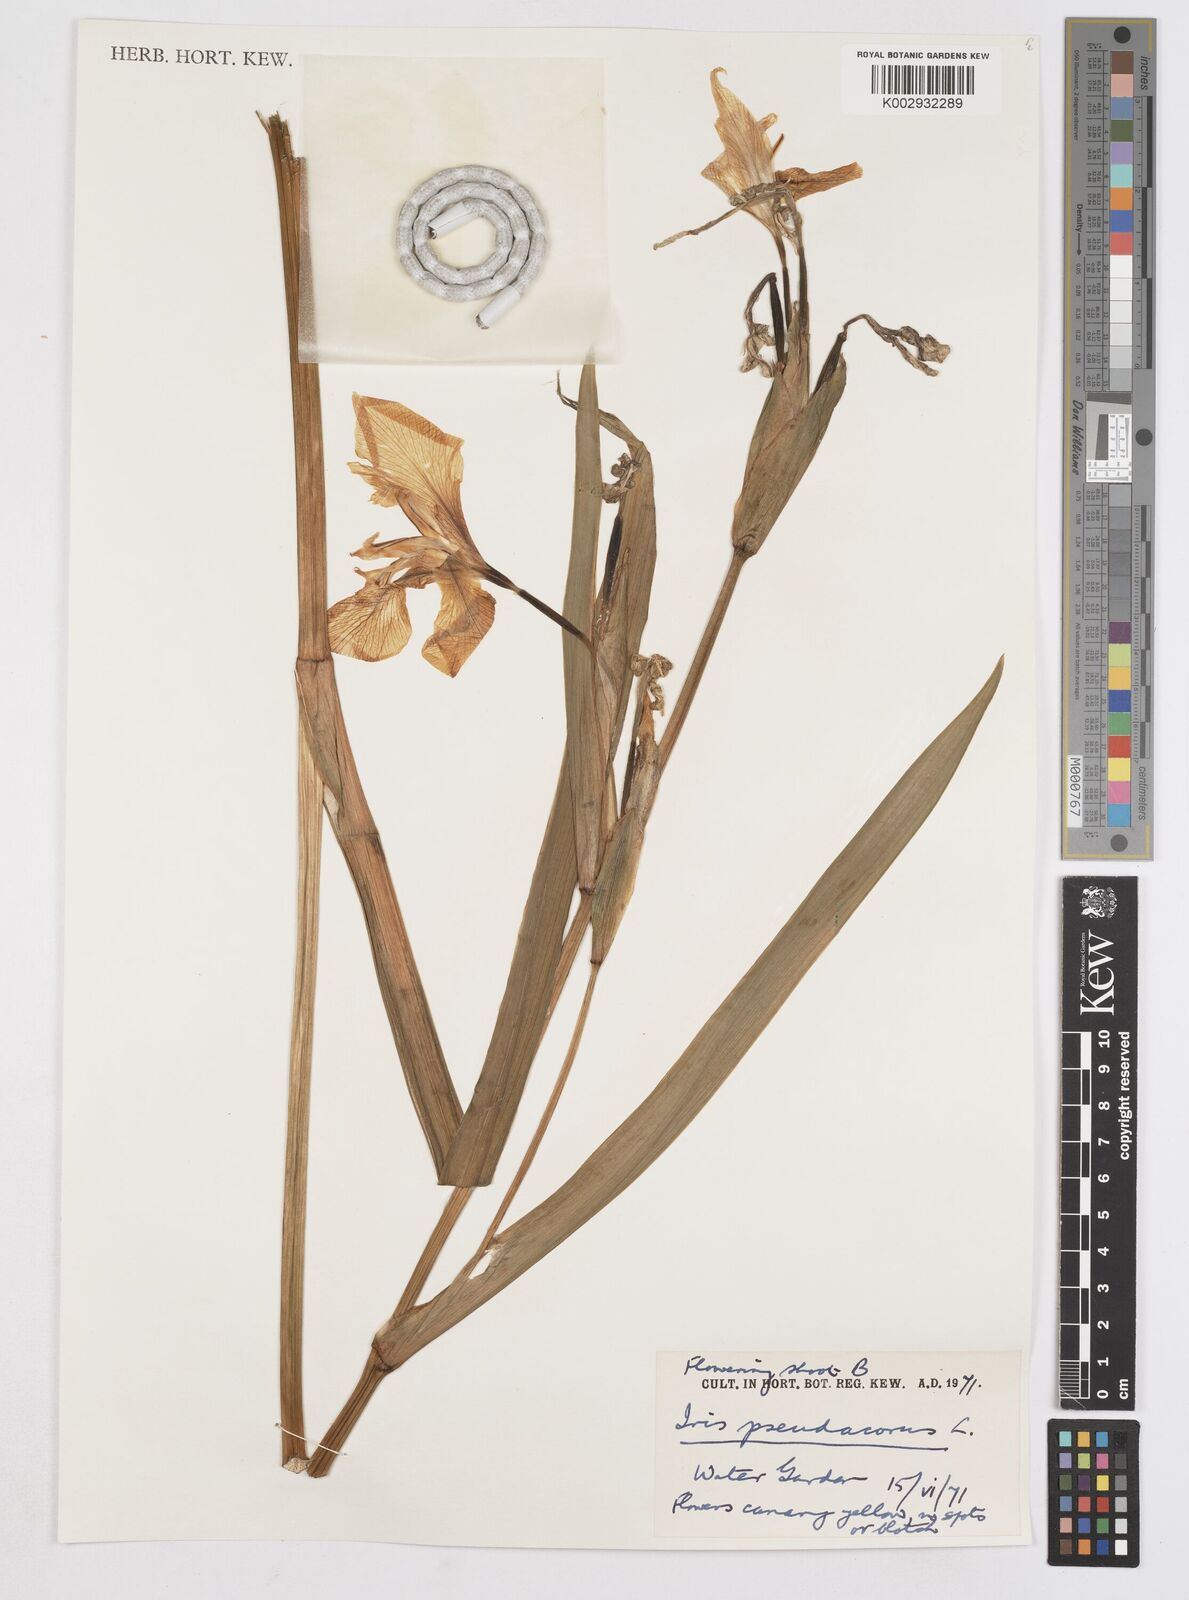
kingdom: Plantae
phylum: Tracheophyta
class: Liliopsida
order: Asparagales
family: Iridaceae
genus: Iris
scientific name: Iris pseudacorus
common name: Yellow flag
